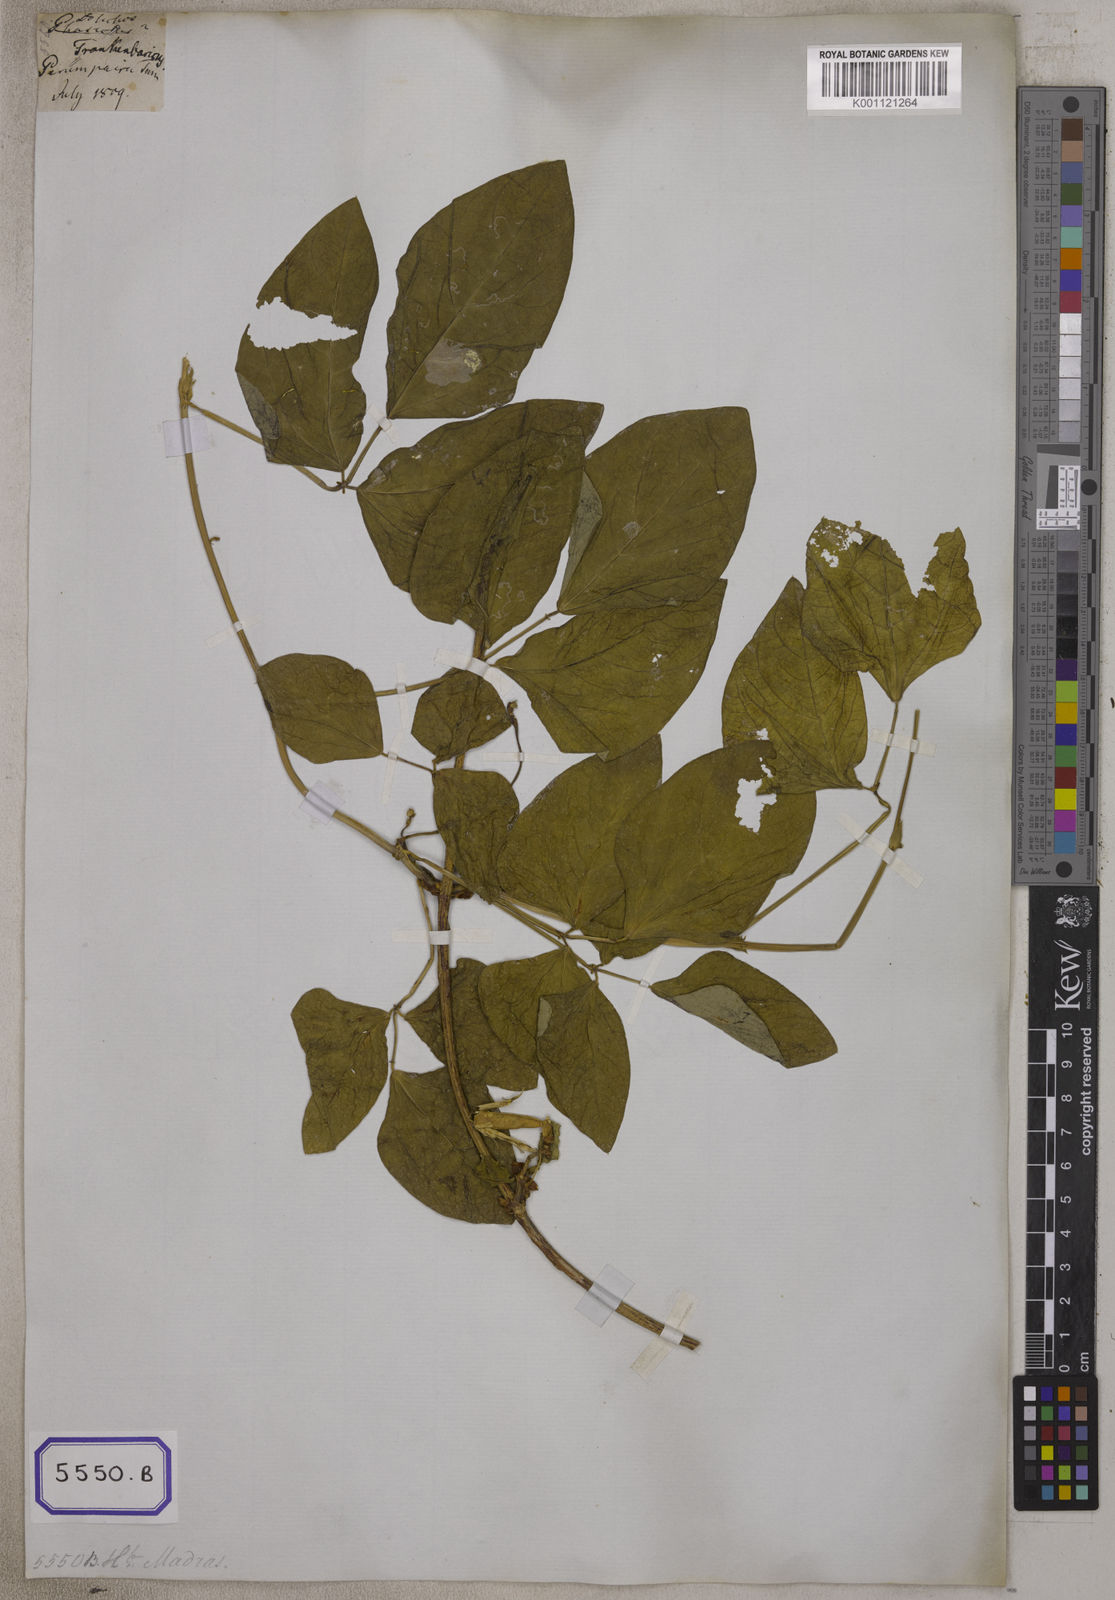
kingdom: Plantae
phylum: Tracheophyta
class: Magnoliopsida
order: Fabales
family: Fabaceae
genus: Vigna
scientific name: Vigna unguiculata
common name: Cowpea
